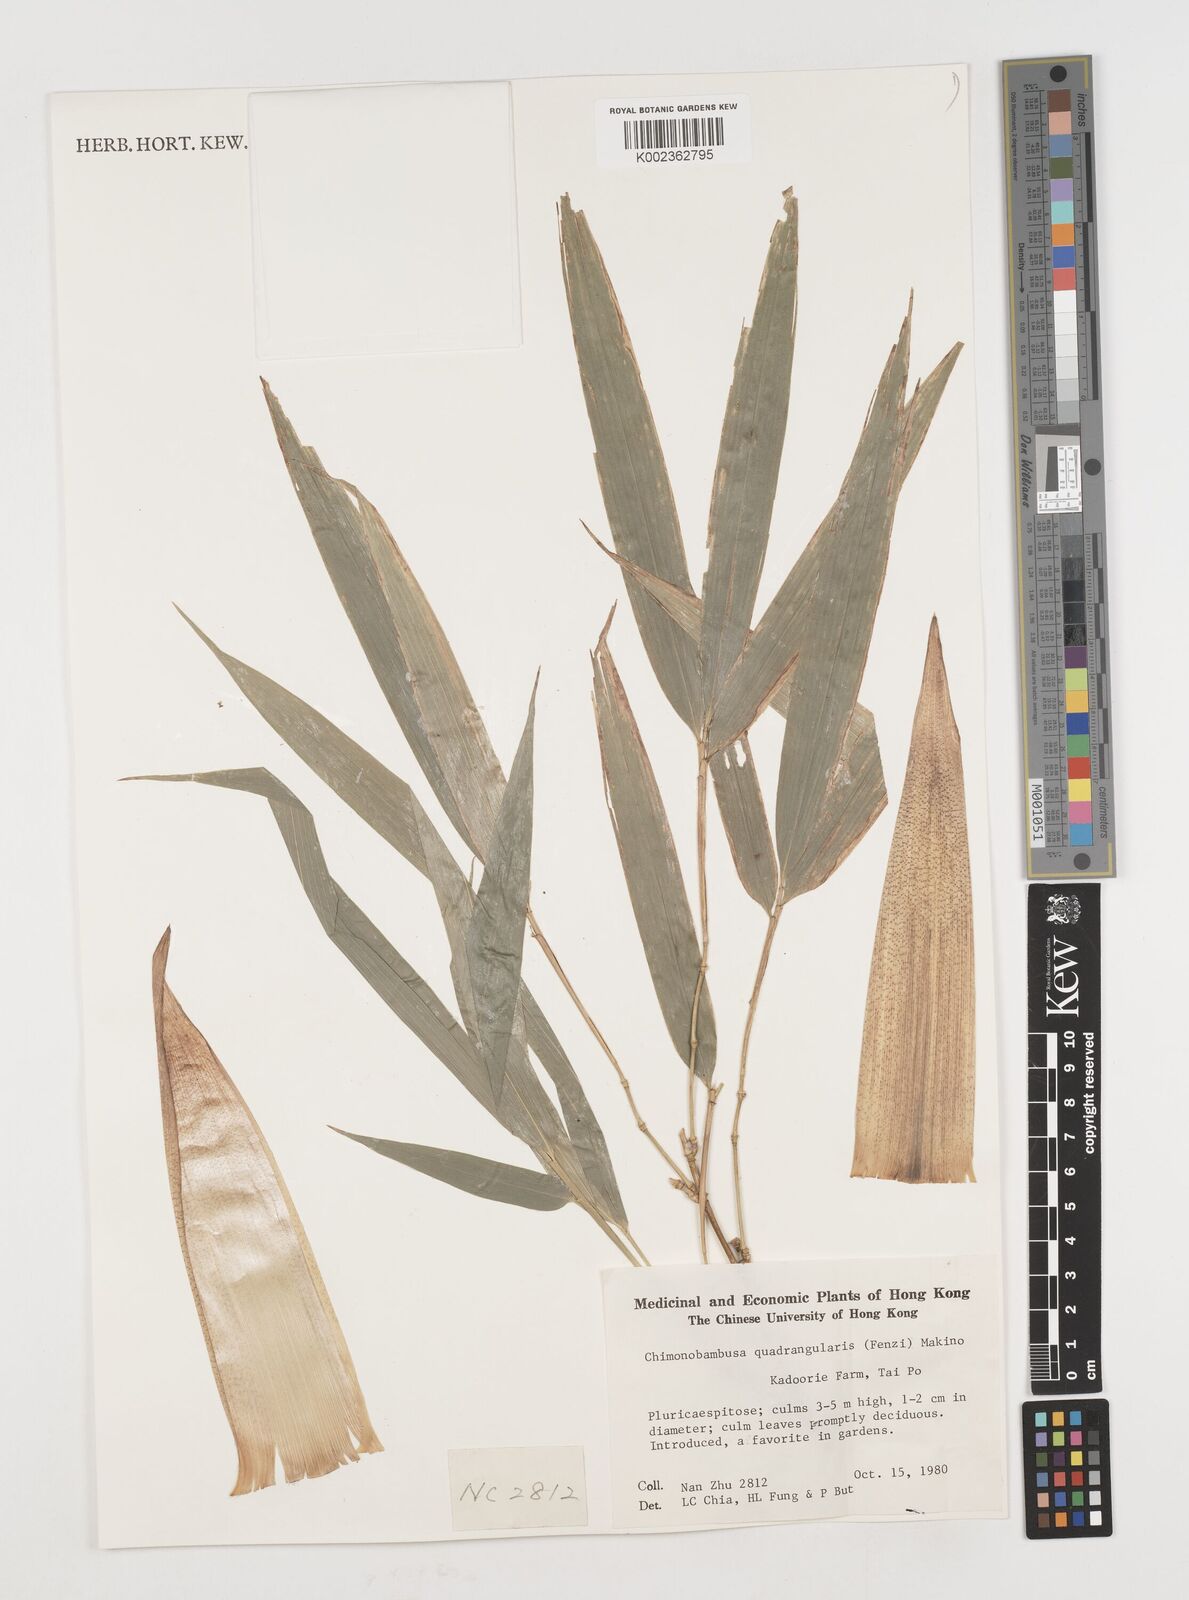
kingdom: Plantae
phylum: Tracheophyta
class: Liliopsida
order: Poales
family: Poaceae
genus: Chimonobambusa
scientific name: Chimonobambusa quadrangularis
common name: Square-stemmed bamboo
